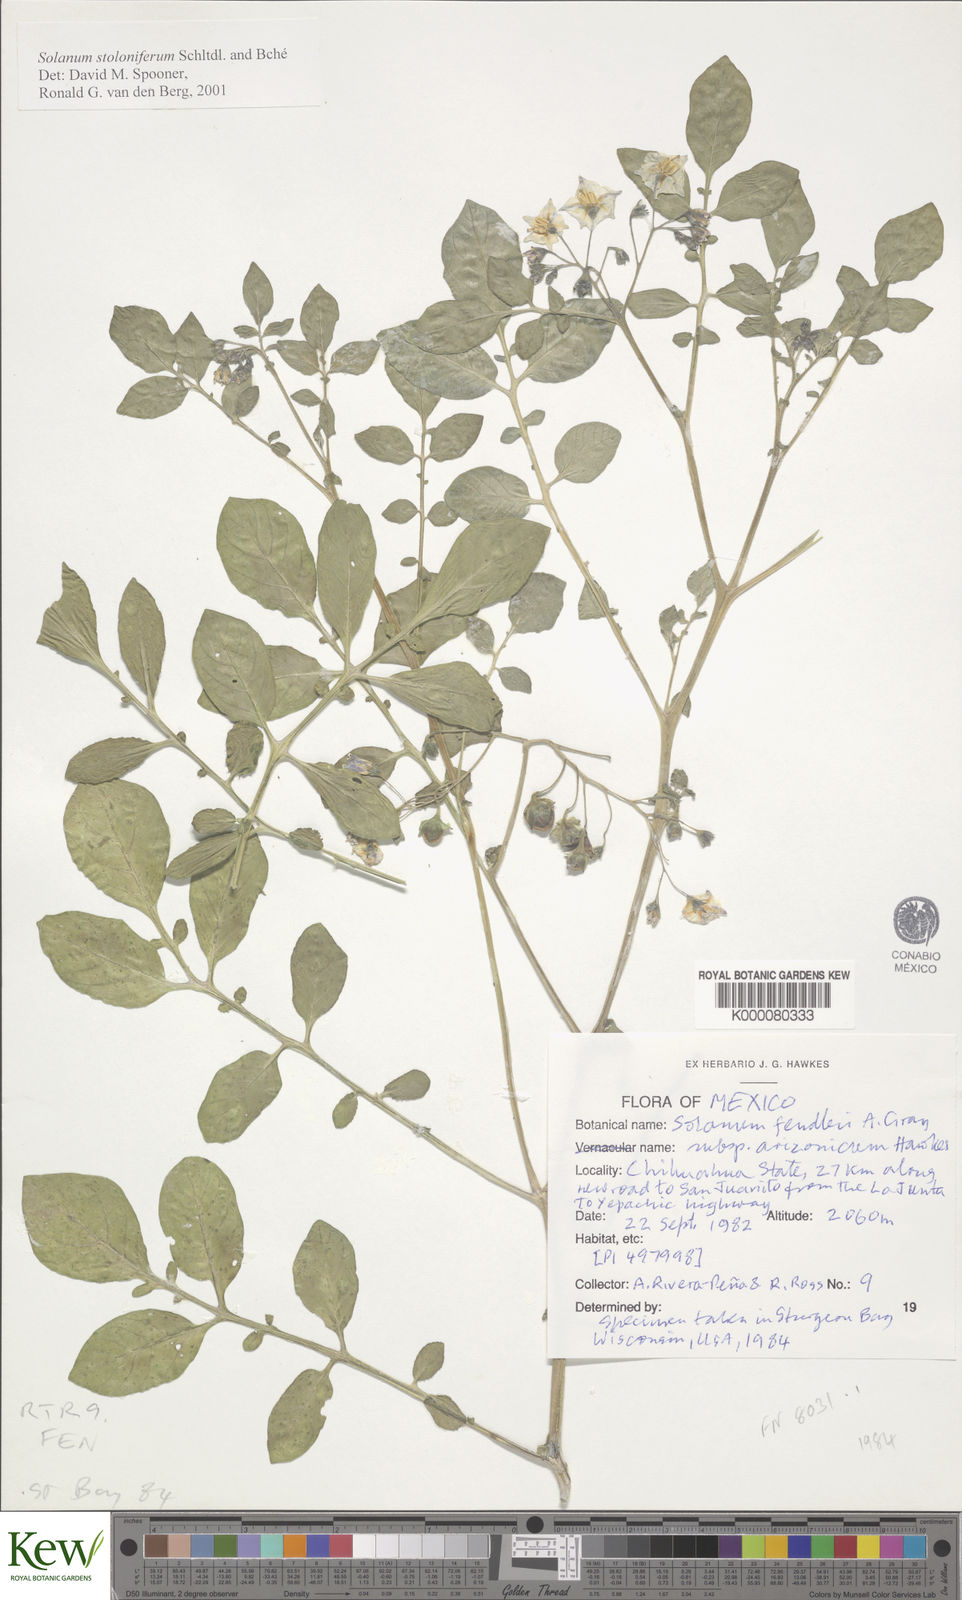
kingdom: Plantae
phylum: Tracheophyta
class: Magnoliopsida
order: Solanales
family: Solanaceae
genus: Solanum
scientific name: Solanum stoloniferum
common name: Fendler's nighshade
